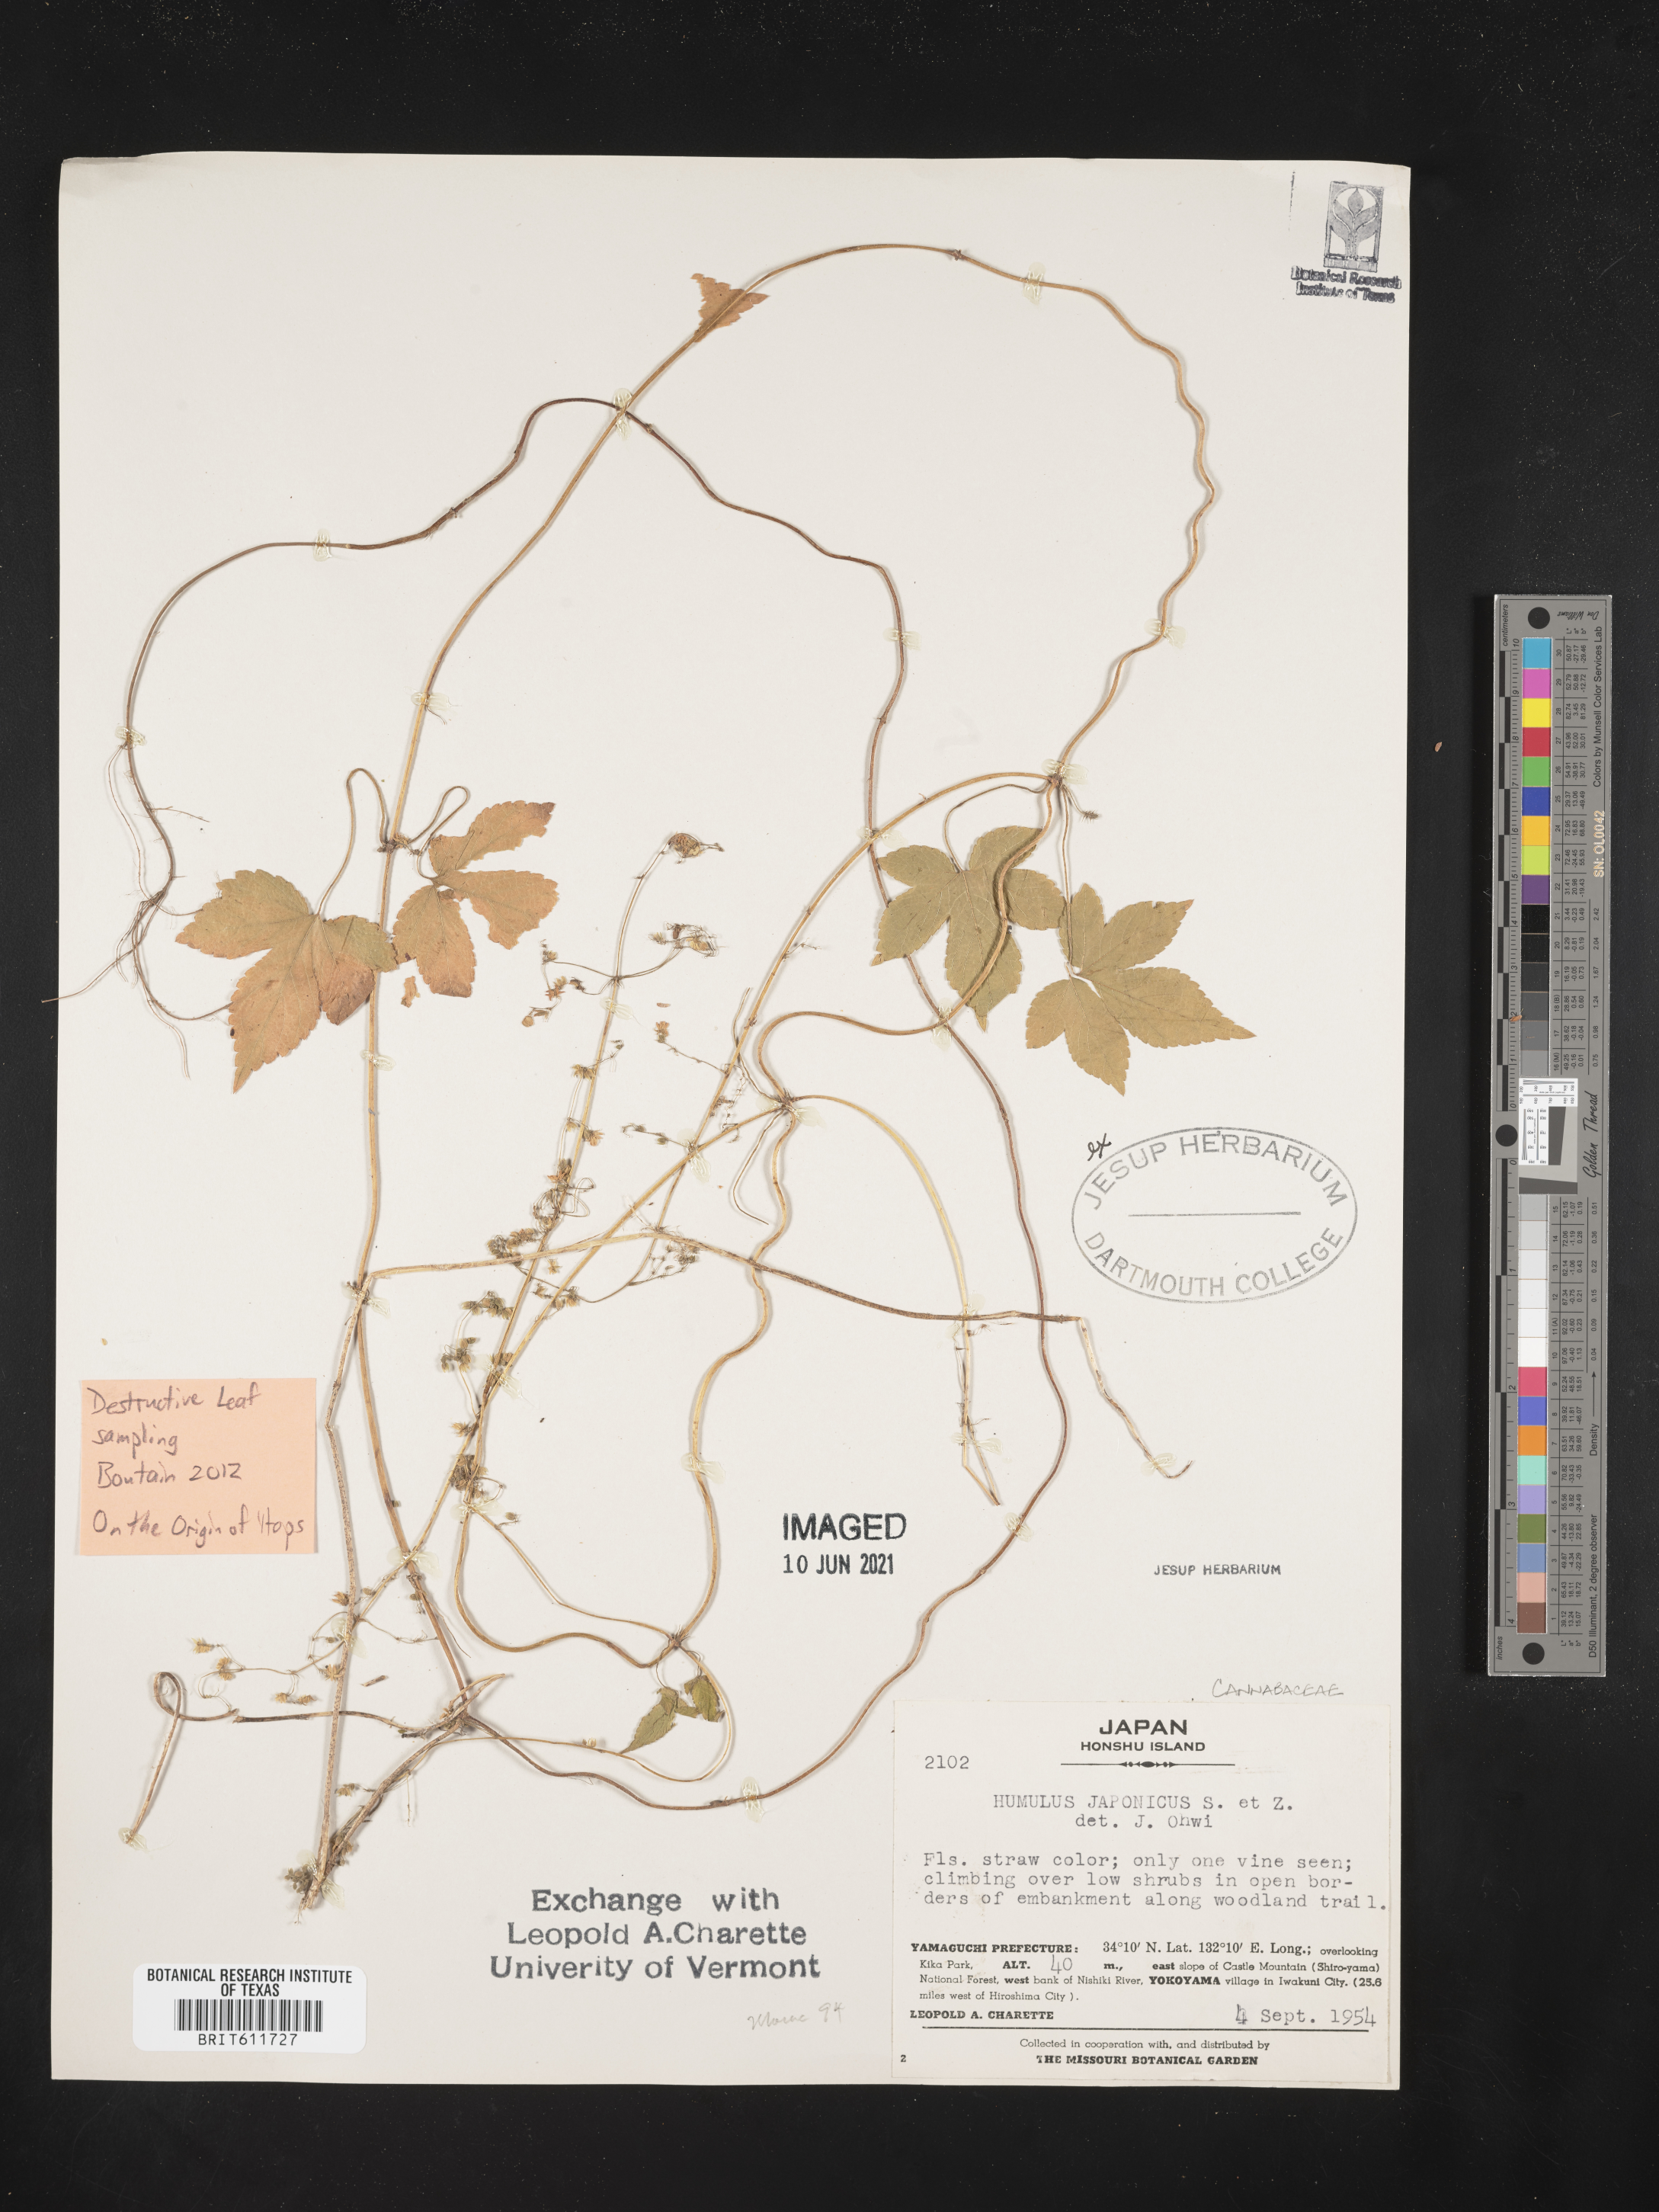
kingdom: Plantae
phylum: Tracheophyta
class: Magnoliopsida
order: Rosales
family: Cannabaceae
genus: Humulus
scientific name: Humulus scandens
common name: Japanese hop
